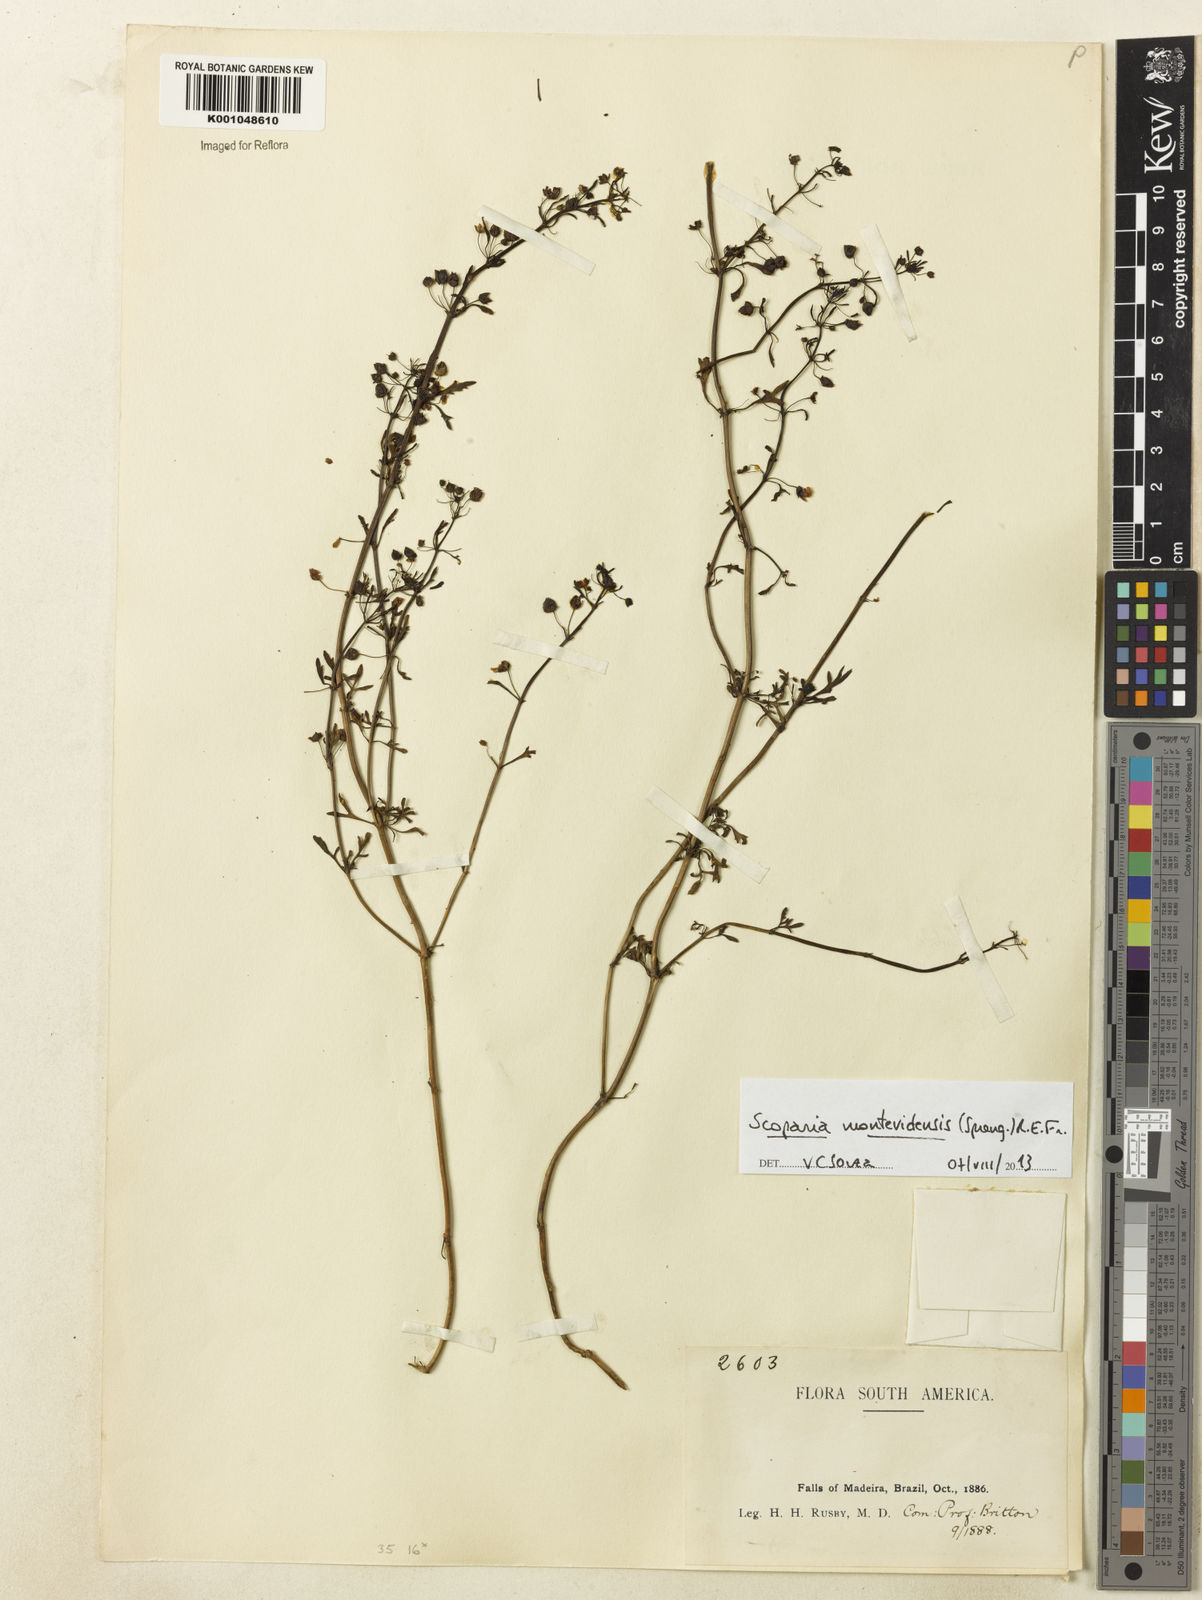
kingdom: Plantae
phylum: Tracheophyta
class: Magnoliopsida
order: Lamiales
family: Plantaginaceae
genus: Scoparia
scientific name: Scoparia montevidensis
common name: Broomwort
